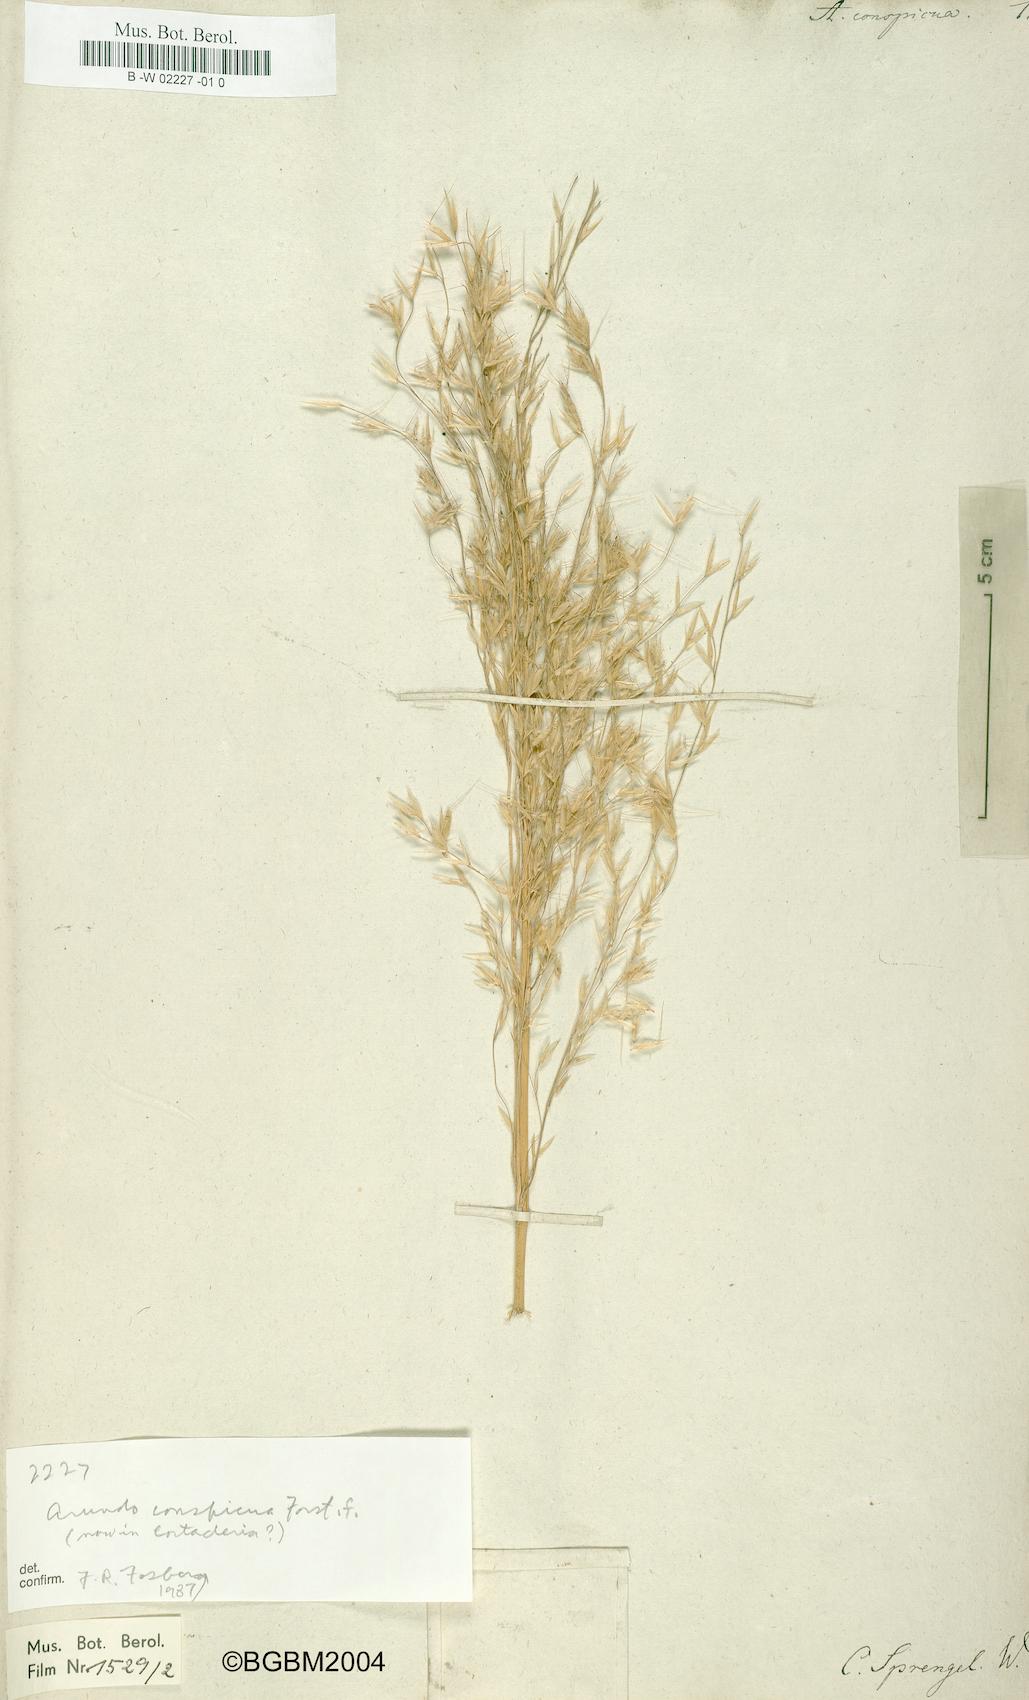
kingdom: Plantae
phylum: Tracheophyta
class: Liliopsida
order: Poales
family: Poaceae
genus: Chionochloa
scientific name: Chionochloa conspicua
